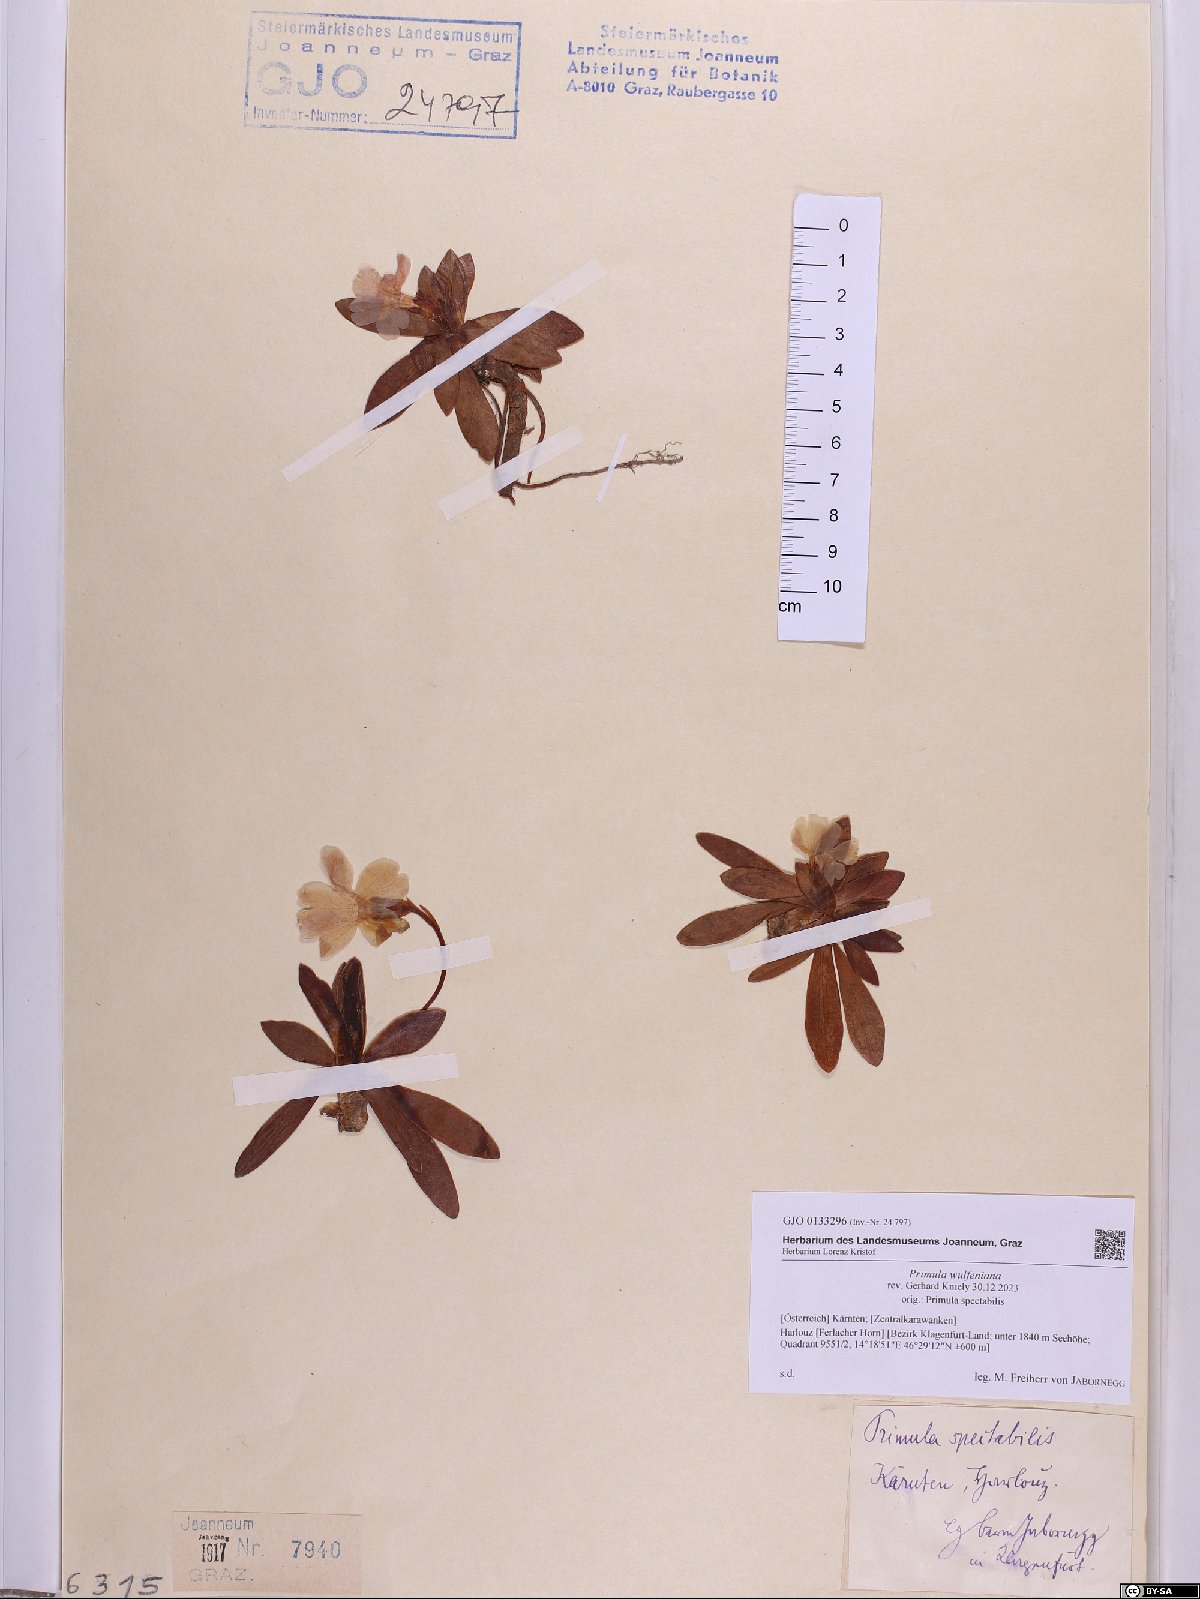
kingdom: Plantae
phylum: Tracheophyta
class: Magnoliopsida
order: Ericales
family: Primulaceae
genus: Primula
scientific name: Primula wulfeniana
